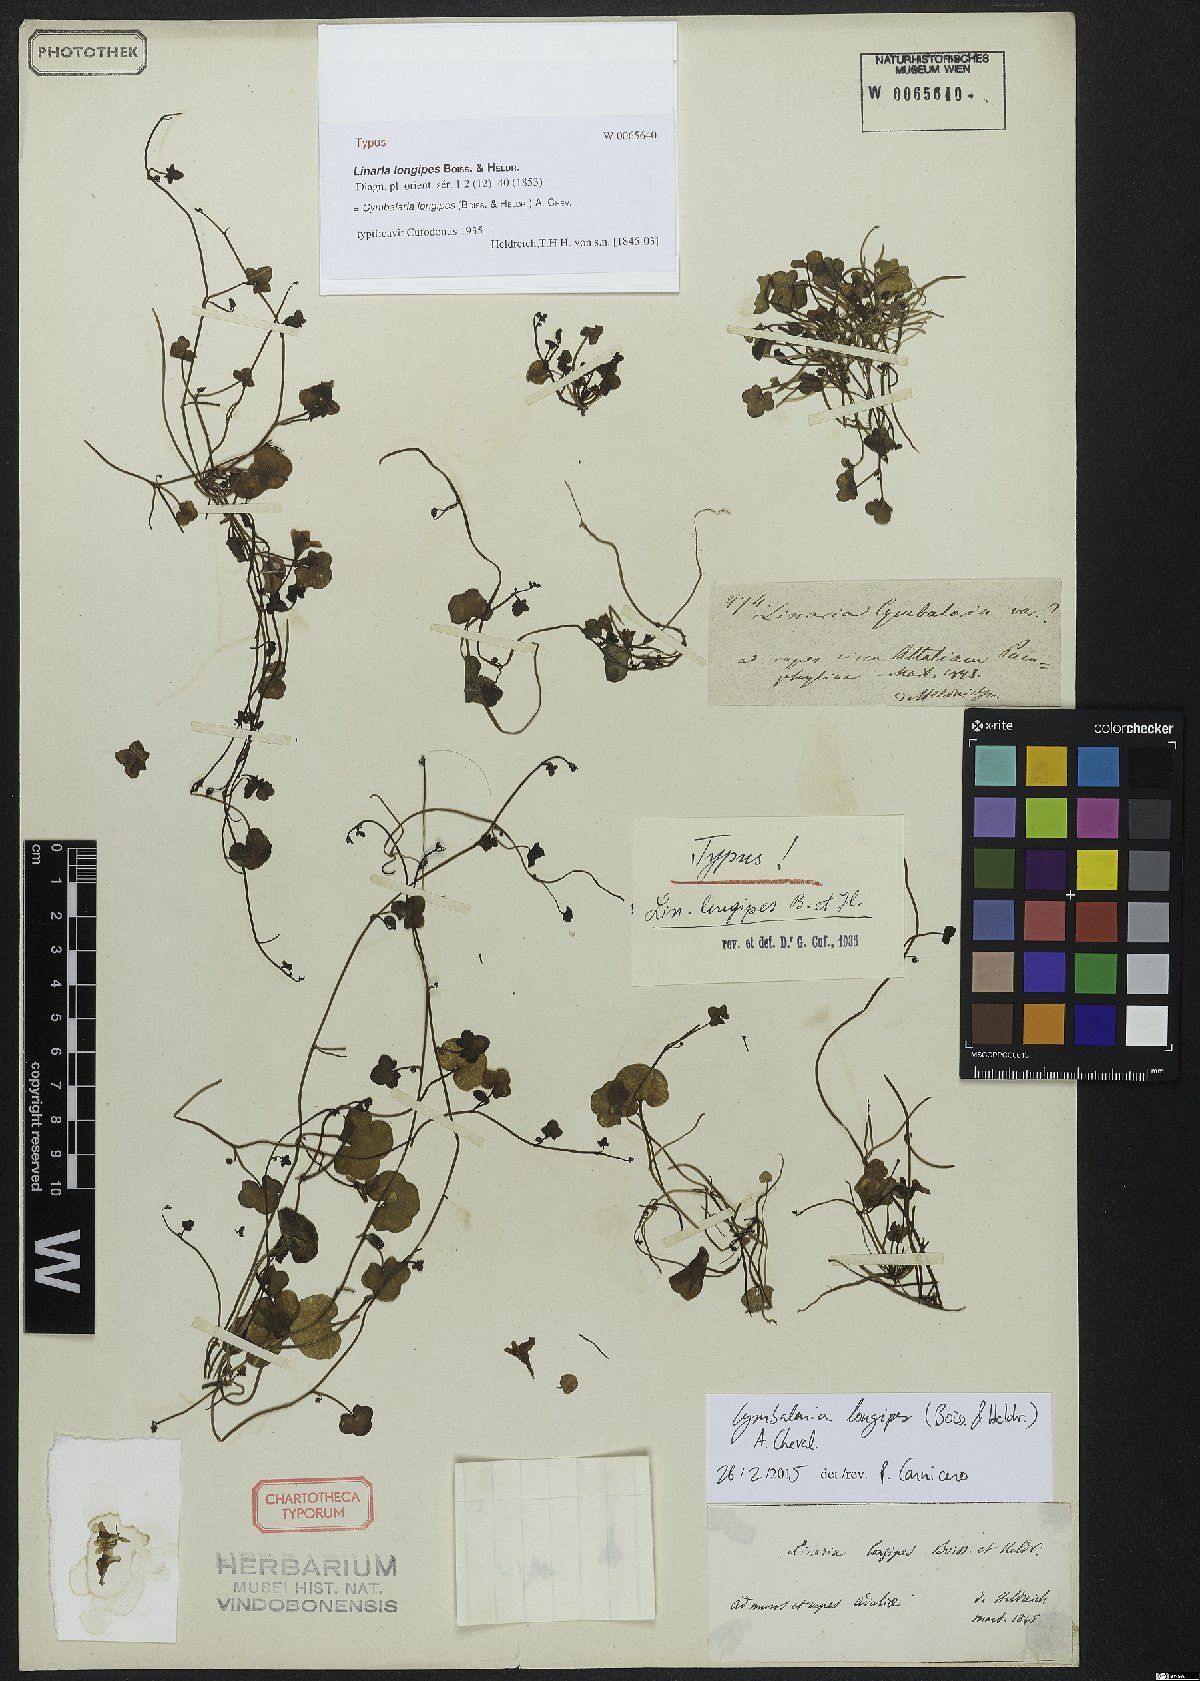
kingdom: Plantae
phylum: Tracheophyta
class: Magnoliopsida
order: Lamiales
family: Plantaginaceae
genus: Cymbalaria
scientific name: Cymbalaria longipes
